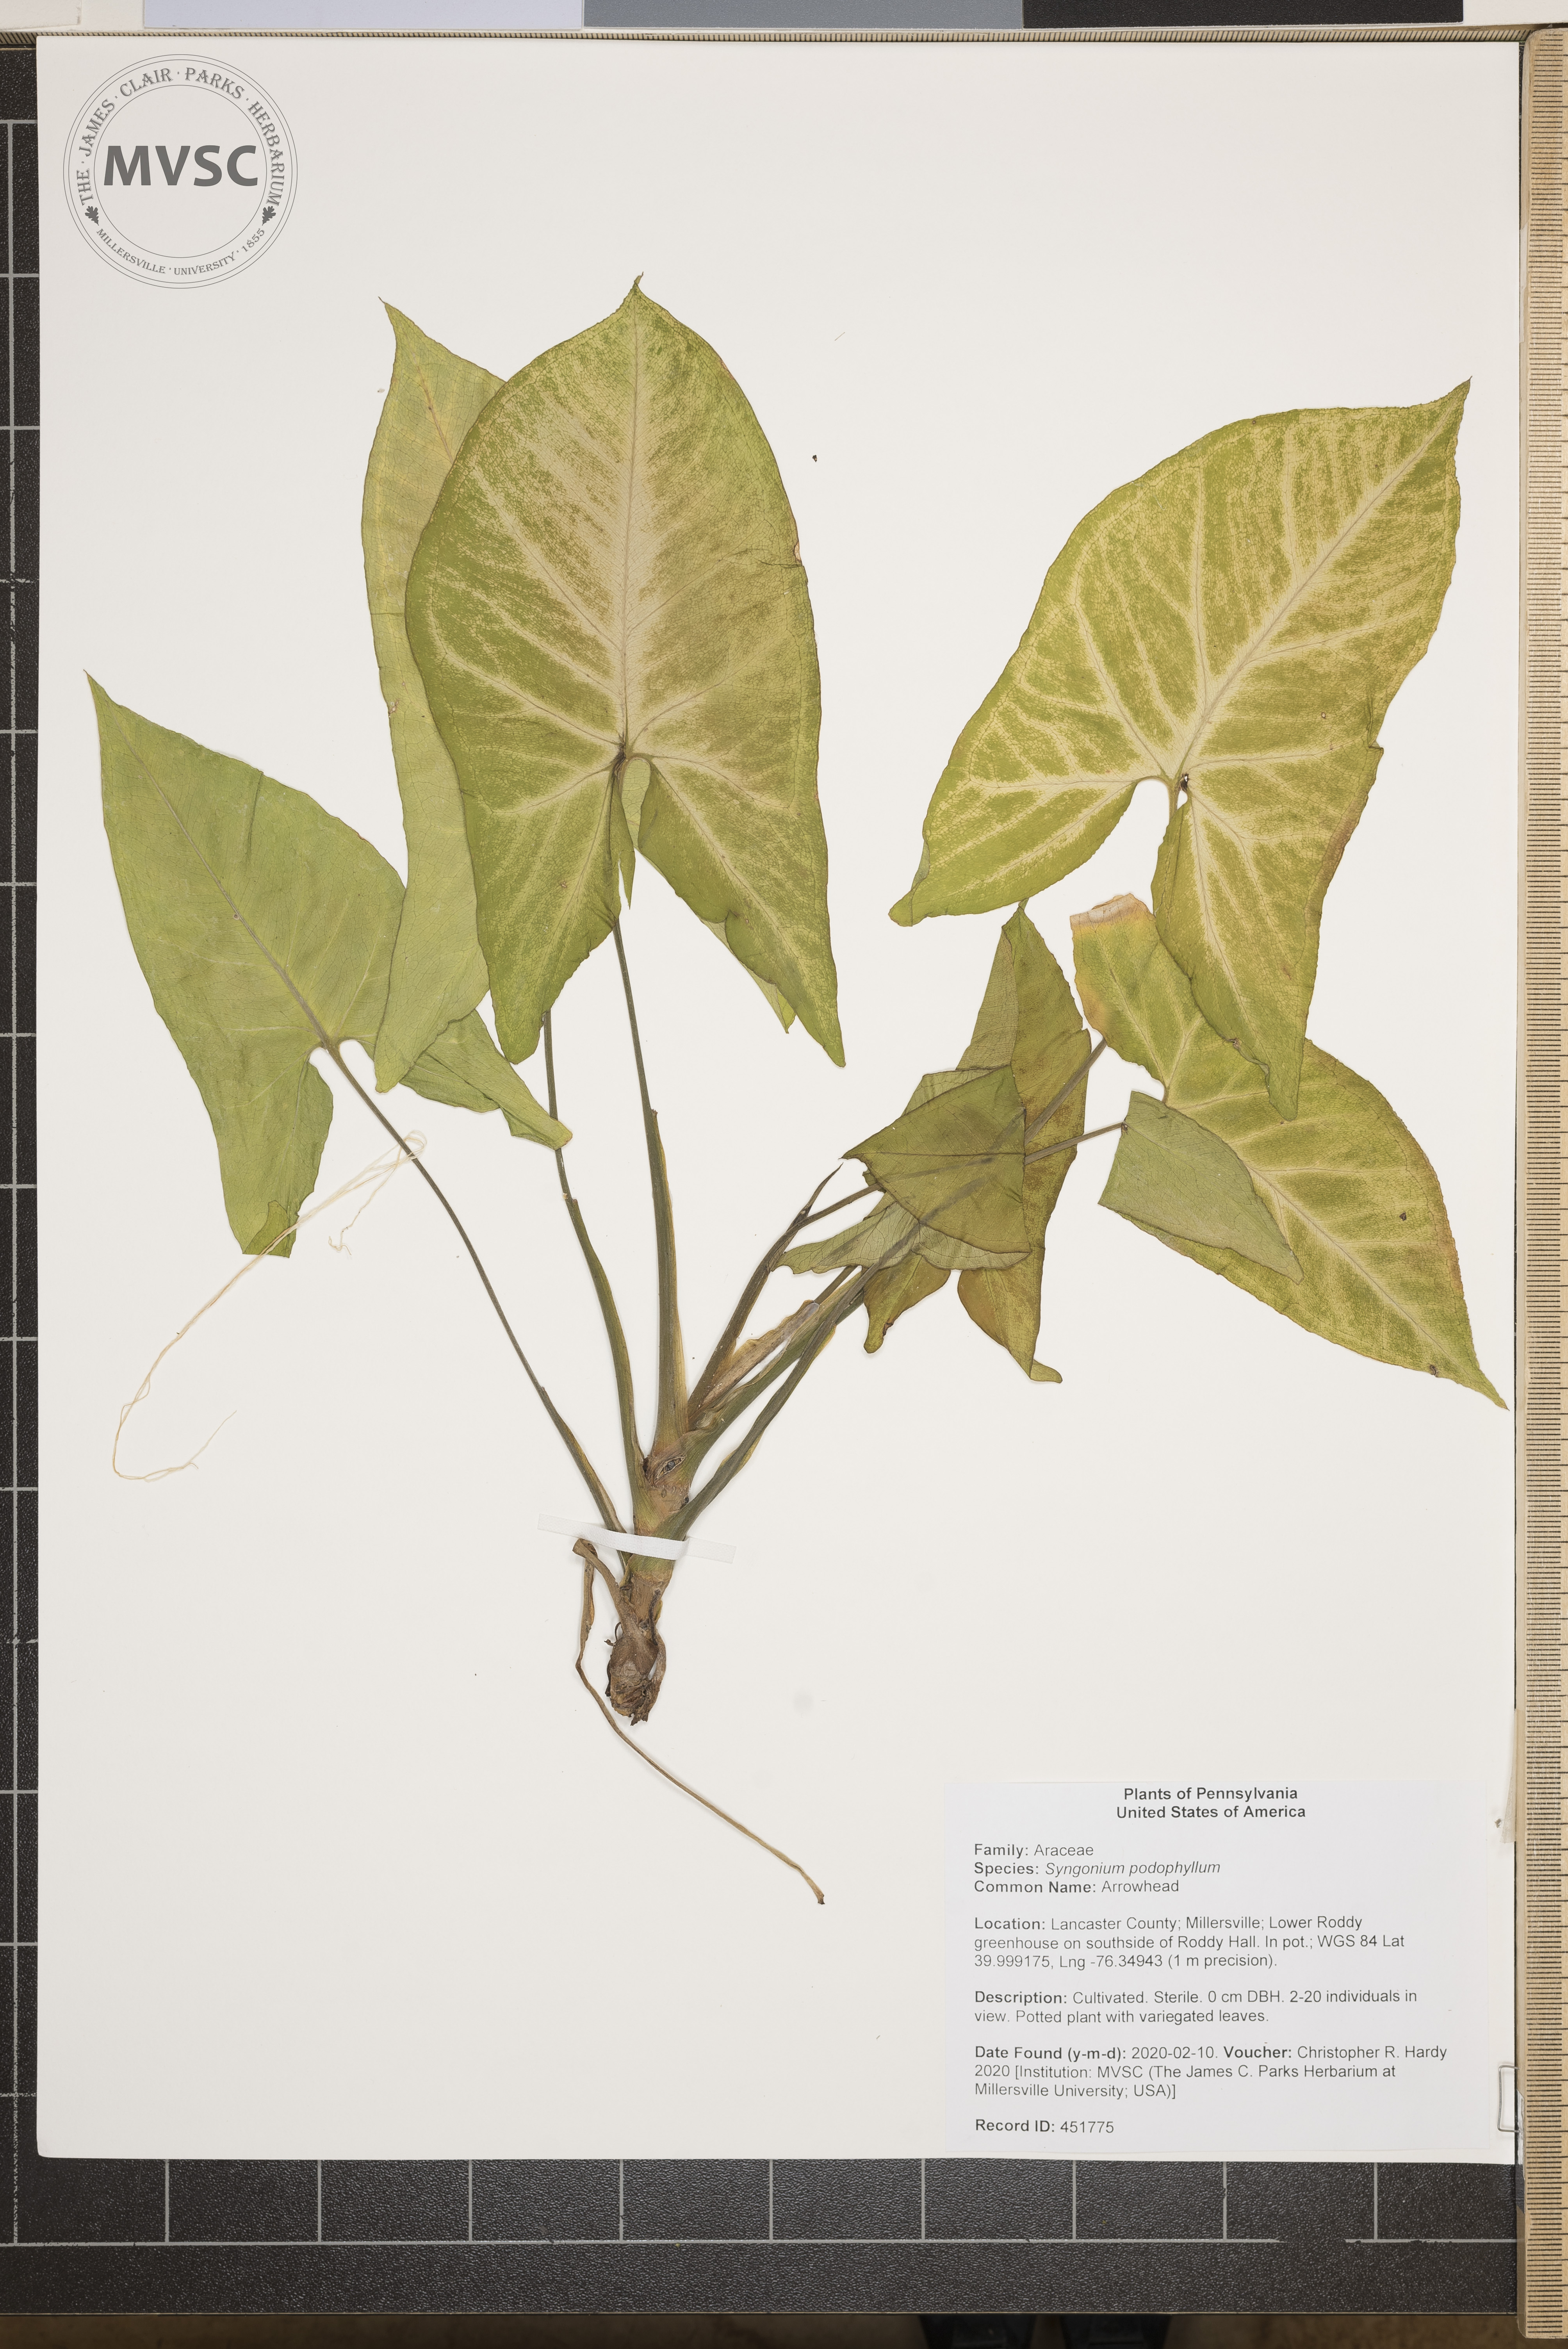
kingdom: Plantae
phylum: Tracheophyta
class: Liliopsida
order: Alismatales
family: Araceae
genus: Syngonium
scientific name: Syngonium podophyllum
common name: Arrowhead
